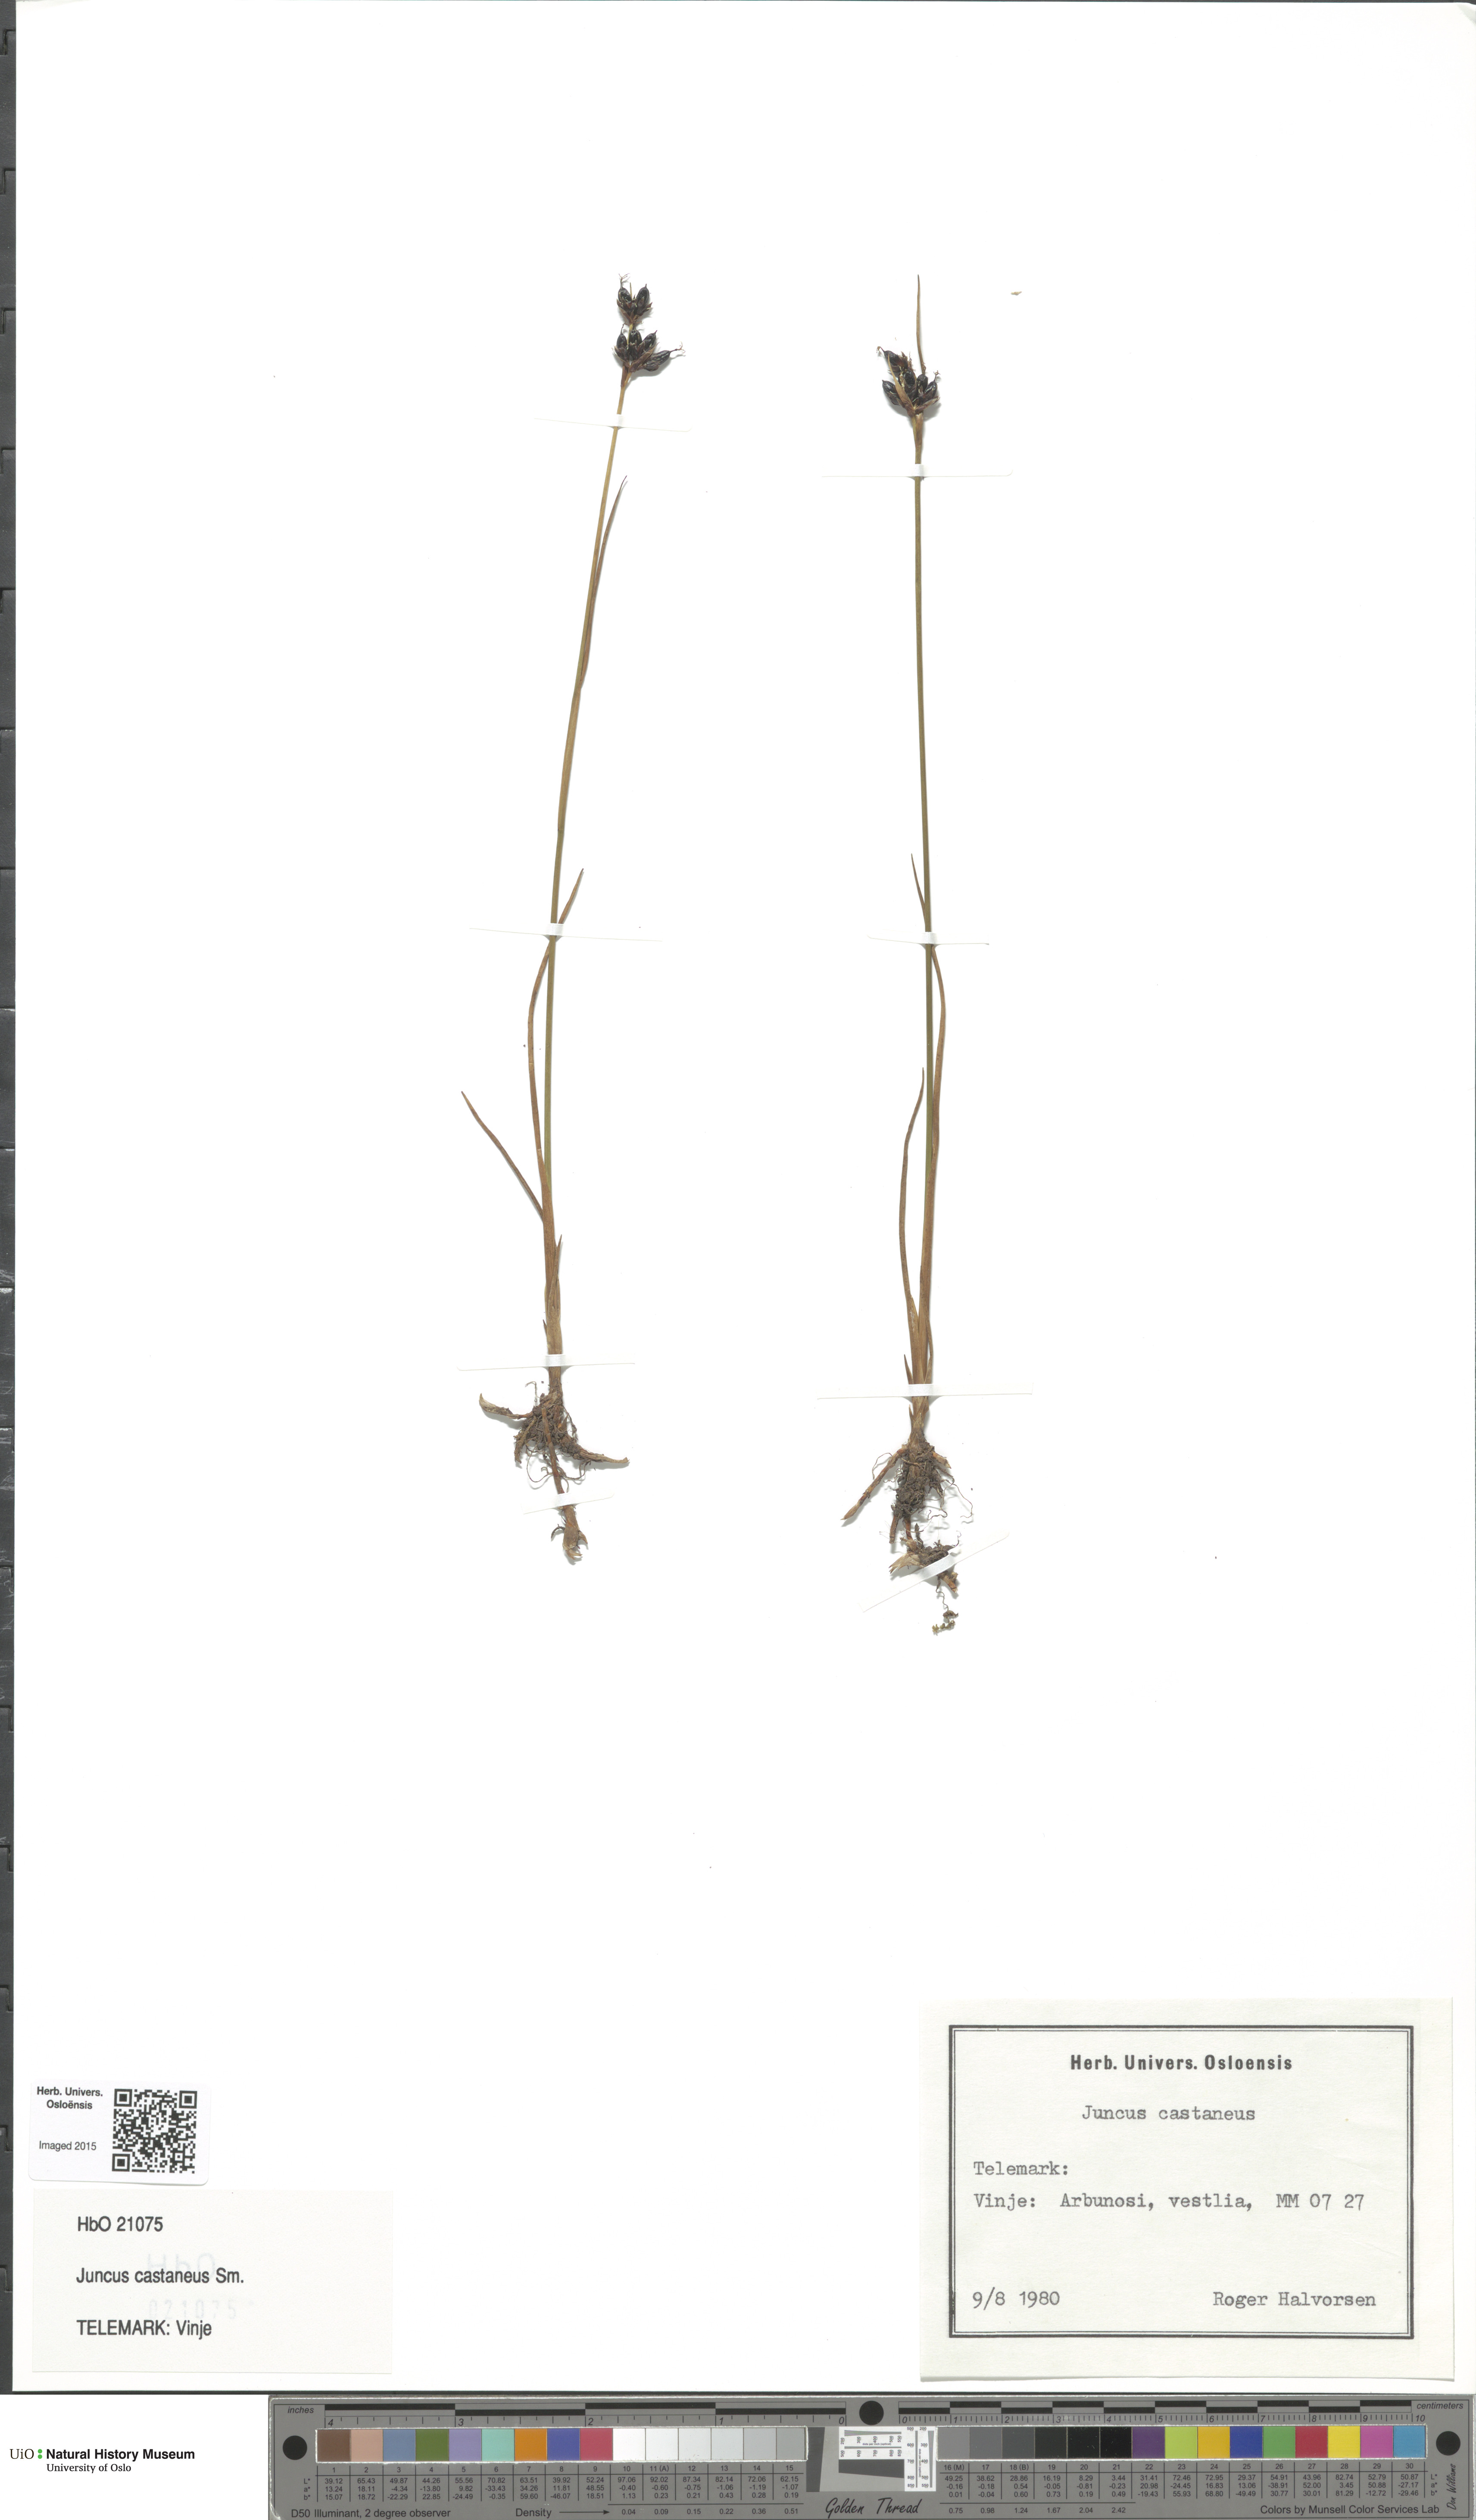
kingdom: Plantae
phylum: Tracheophyta
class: Liliopsida
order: Poales
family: Juncaceae
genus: Juncus
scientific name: Juncus castaneus
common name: Chestnut rush
